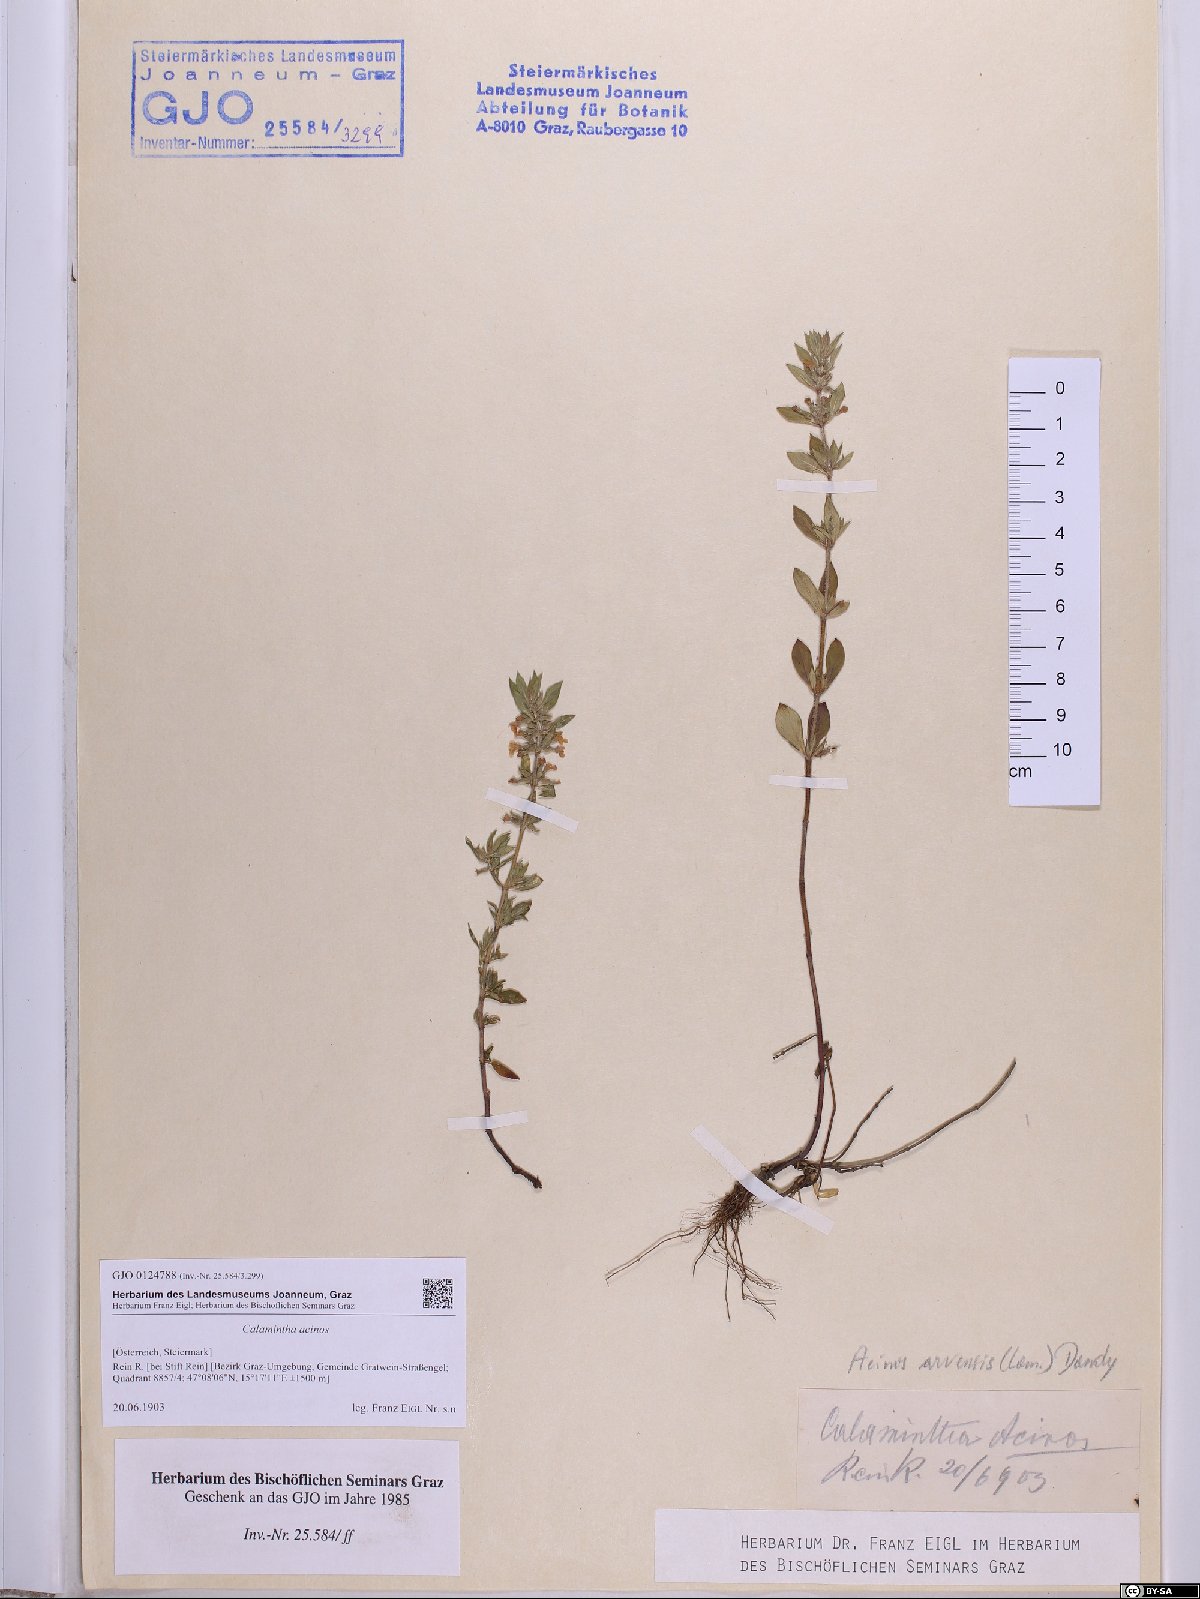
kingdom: Plantae
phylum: Tracheophyta
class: Magnoliopsida
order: Lamiales
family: Lamiaceae
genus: Clinopodium
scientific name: Clinopodium acinos
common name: Basil thyme
